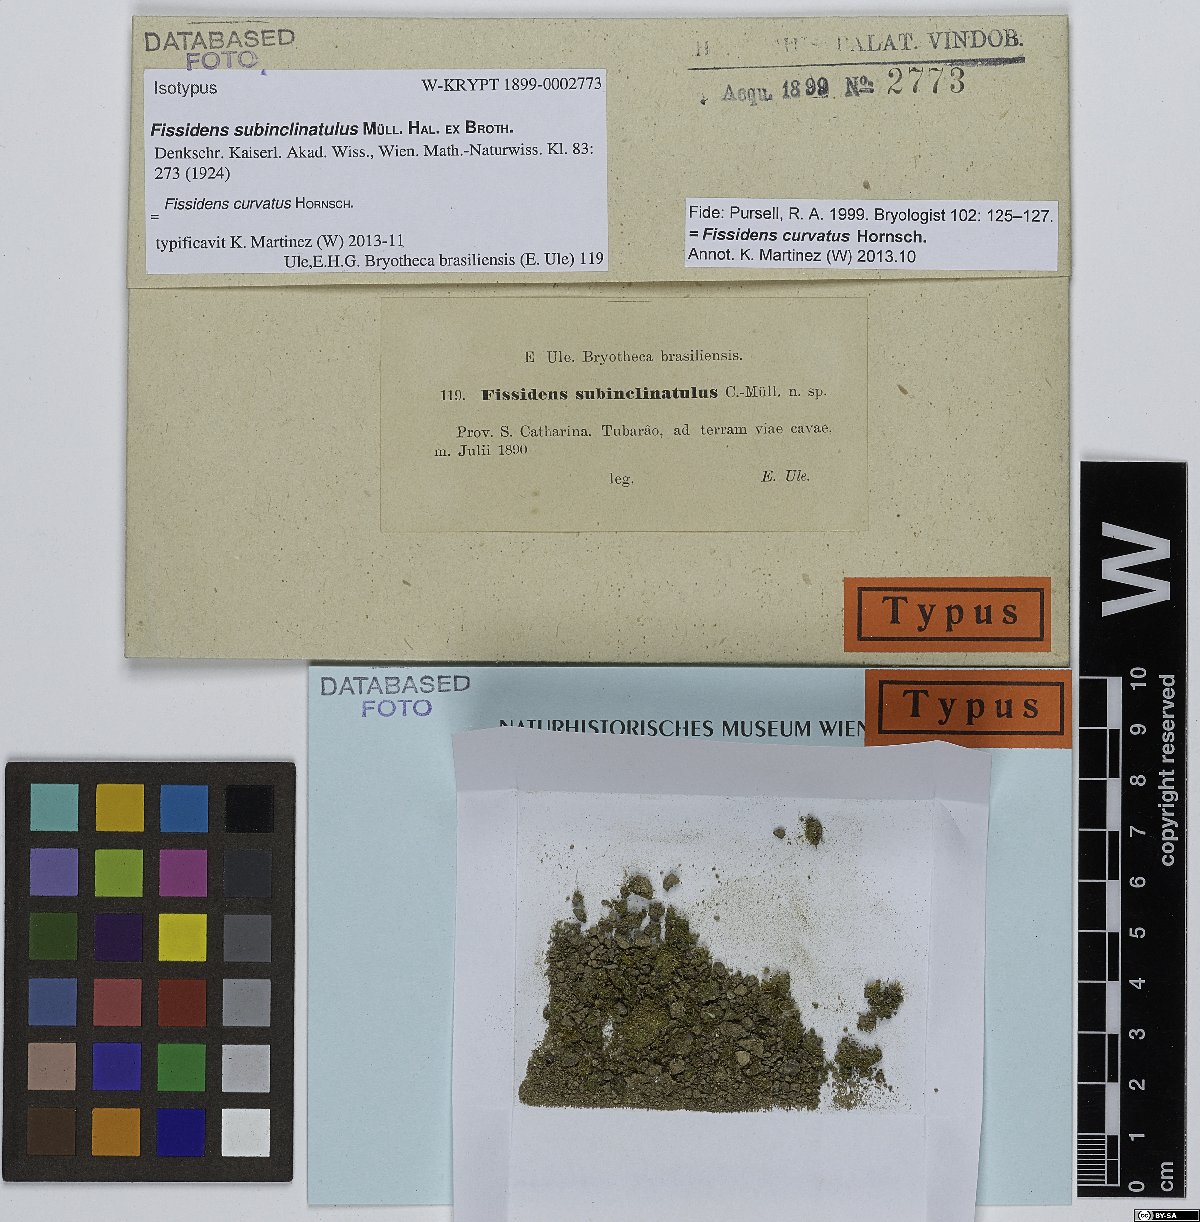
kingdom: Plantae
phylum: Bryophyta
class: Bryopsida
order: Dicranales
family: Fissidentaceae
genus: Fissidens
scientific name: Fissidens curvatus
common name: Milo's fissidens moss
